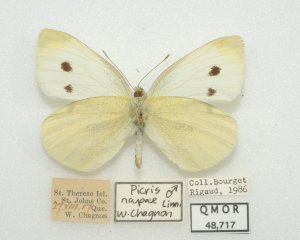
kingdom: Animalia
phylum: Arthropoda
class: Insecta
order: Lepidoptera
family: Pieridae
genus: Pieris
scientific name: Pieris rapae
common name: Cabbage White
